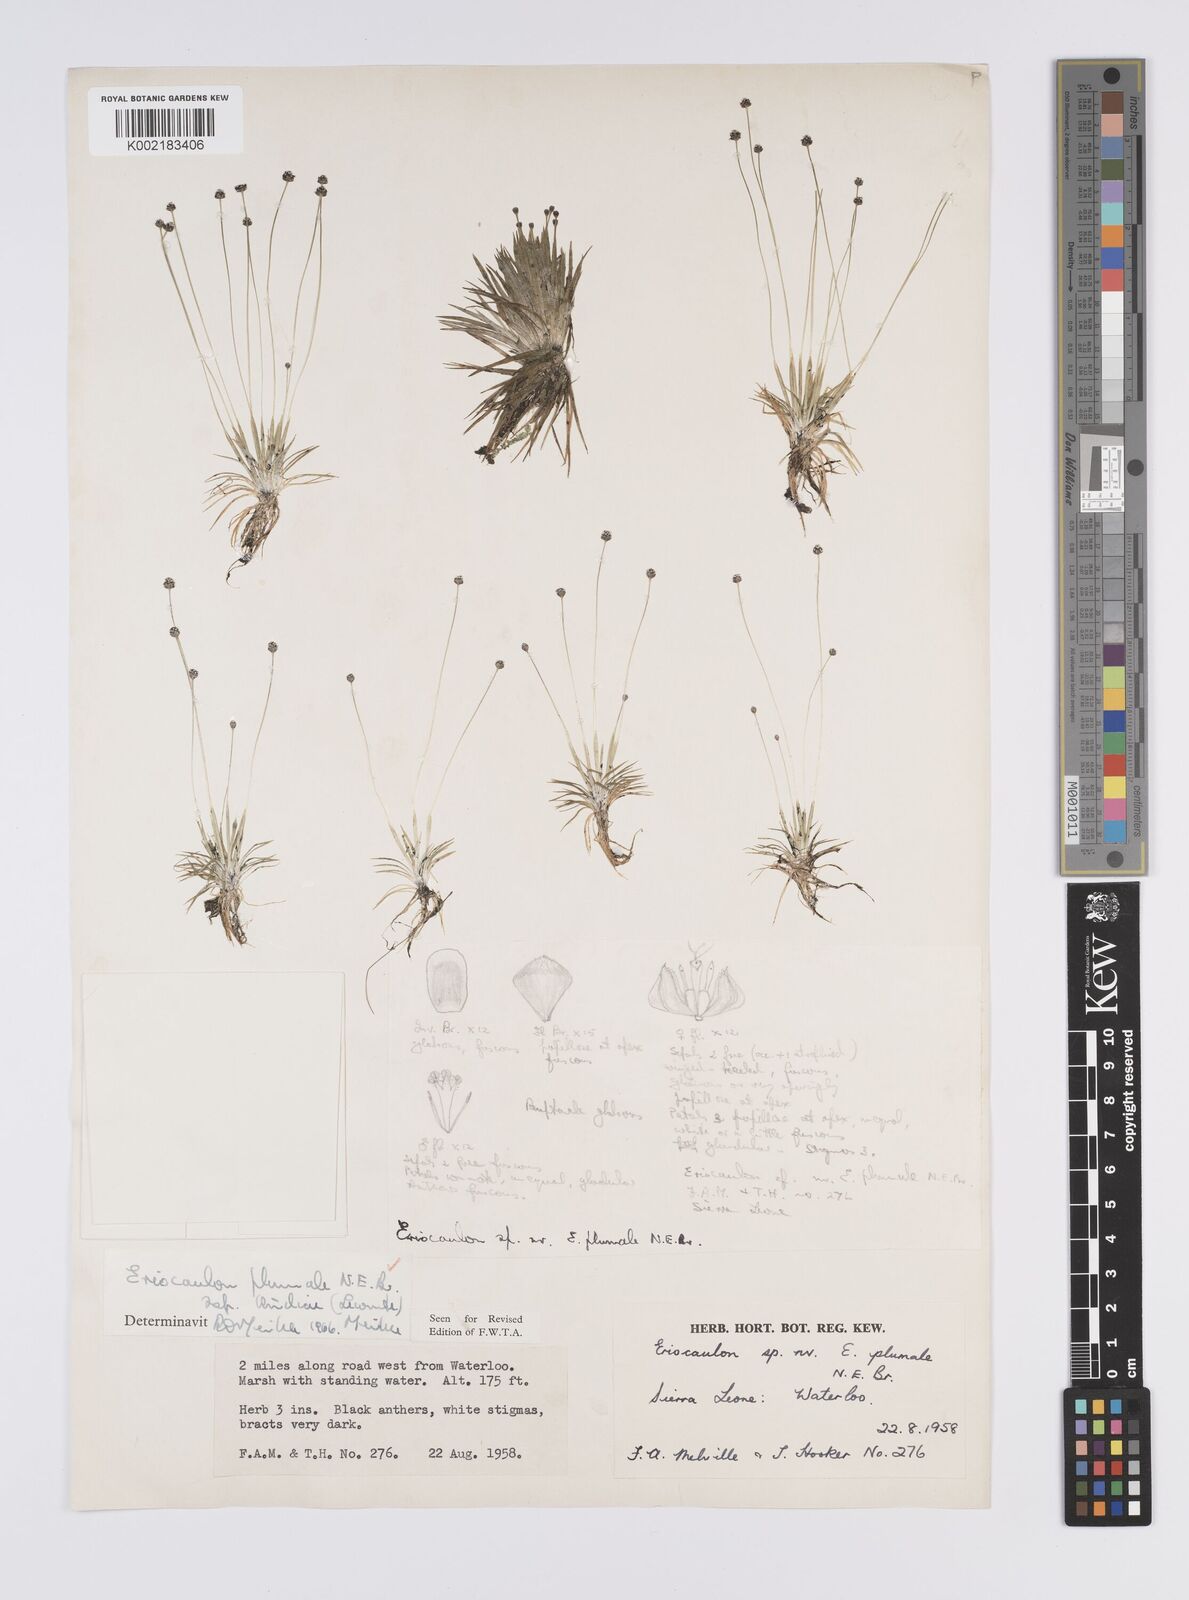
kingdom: Plantae
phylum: Tracheophyta
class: Liliopsida
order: Poales
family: Eriocaulaceae
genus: Eriocaulon
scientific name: Eriocaulon plumale
